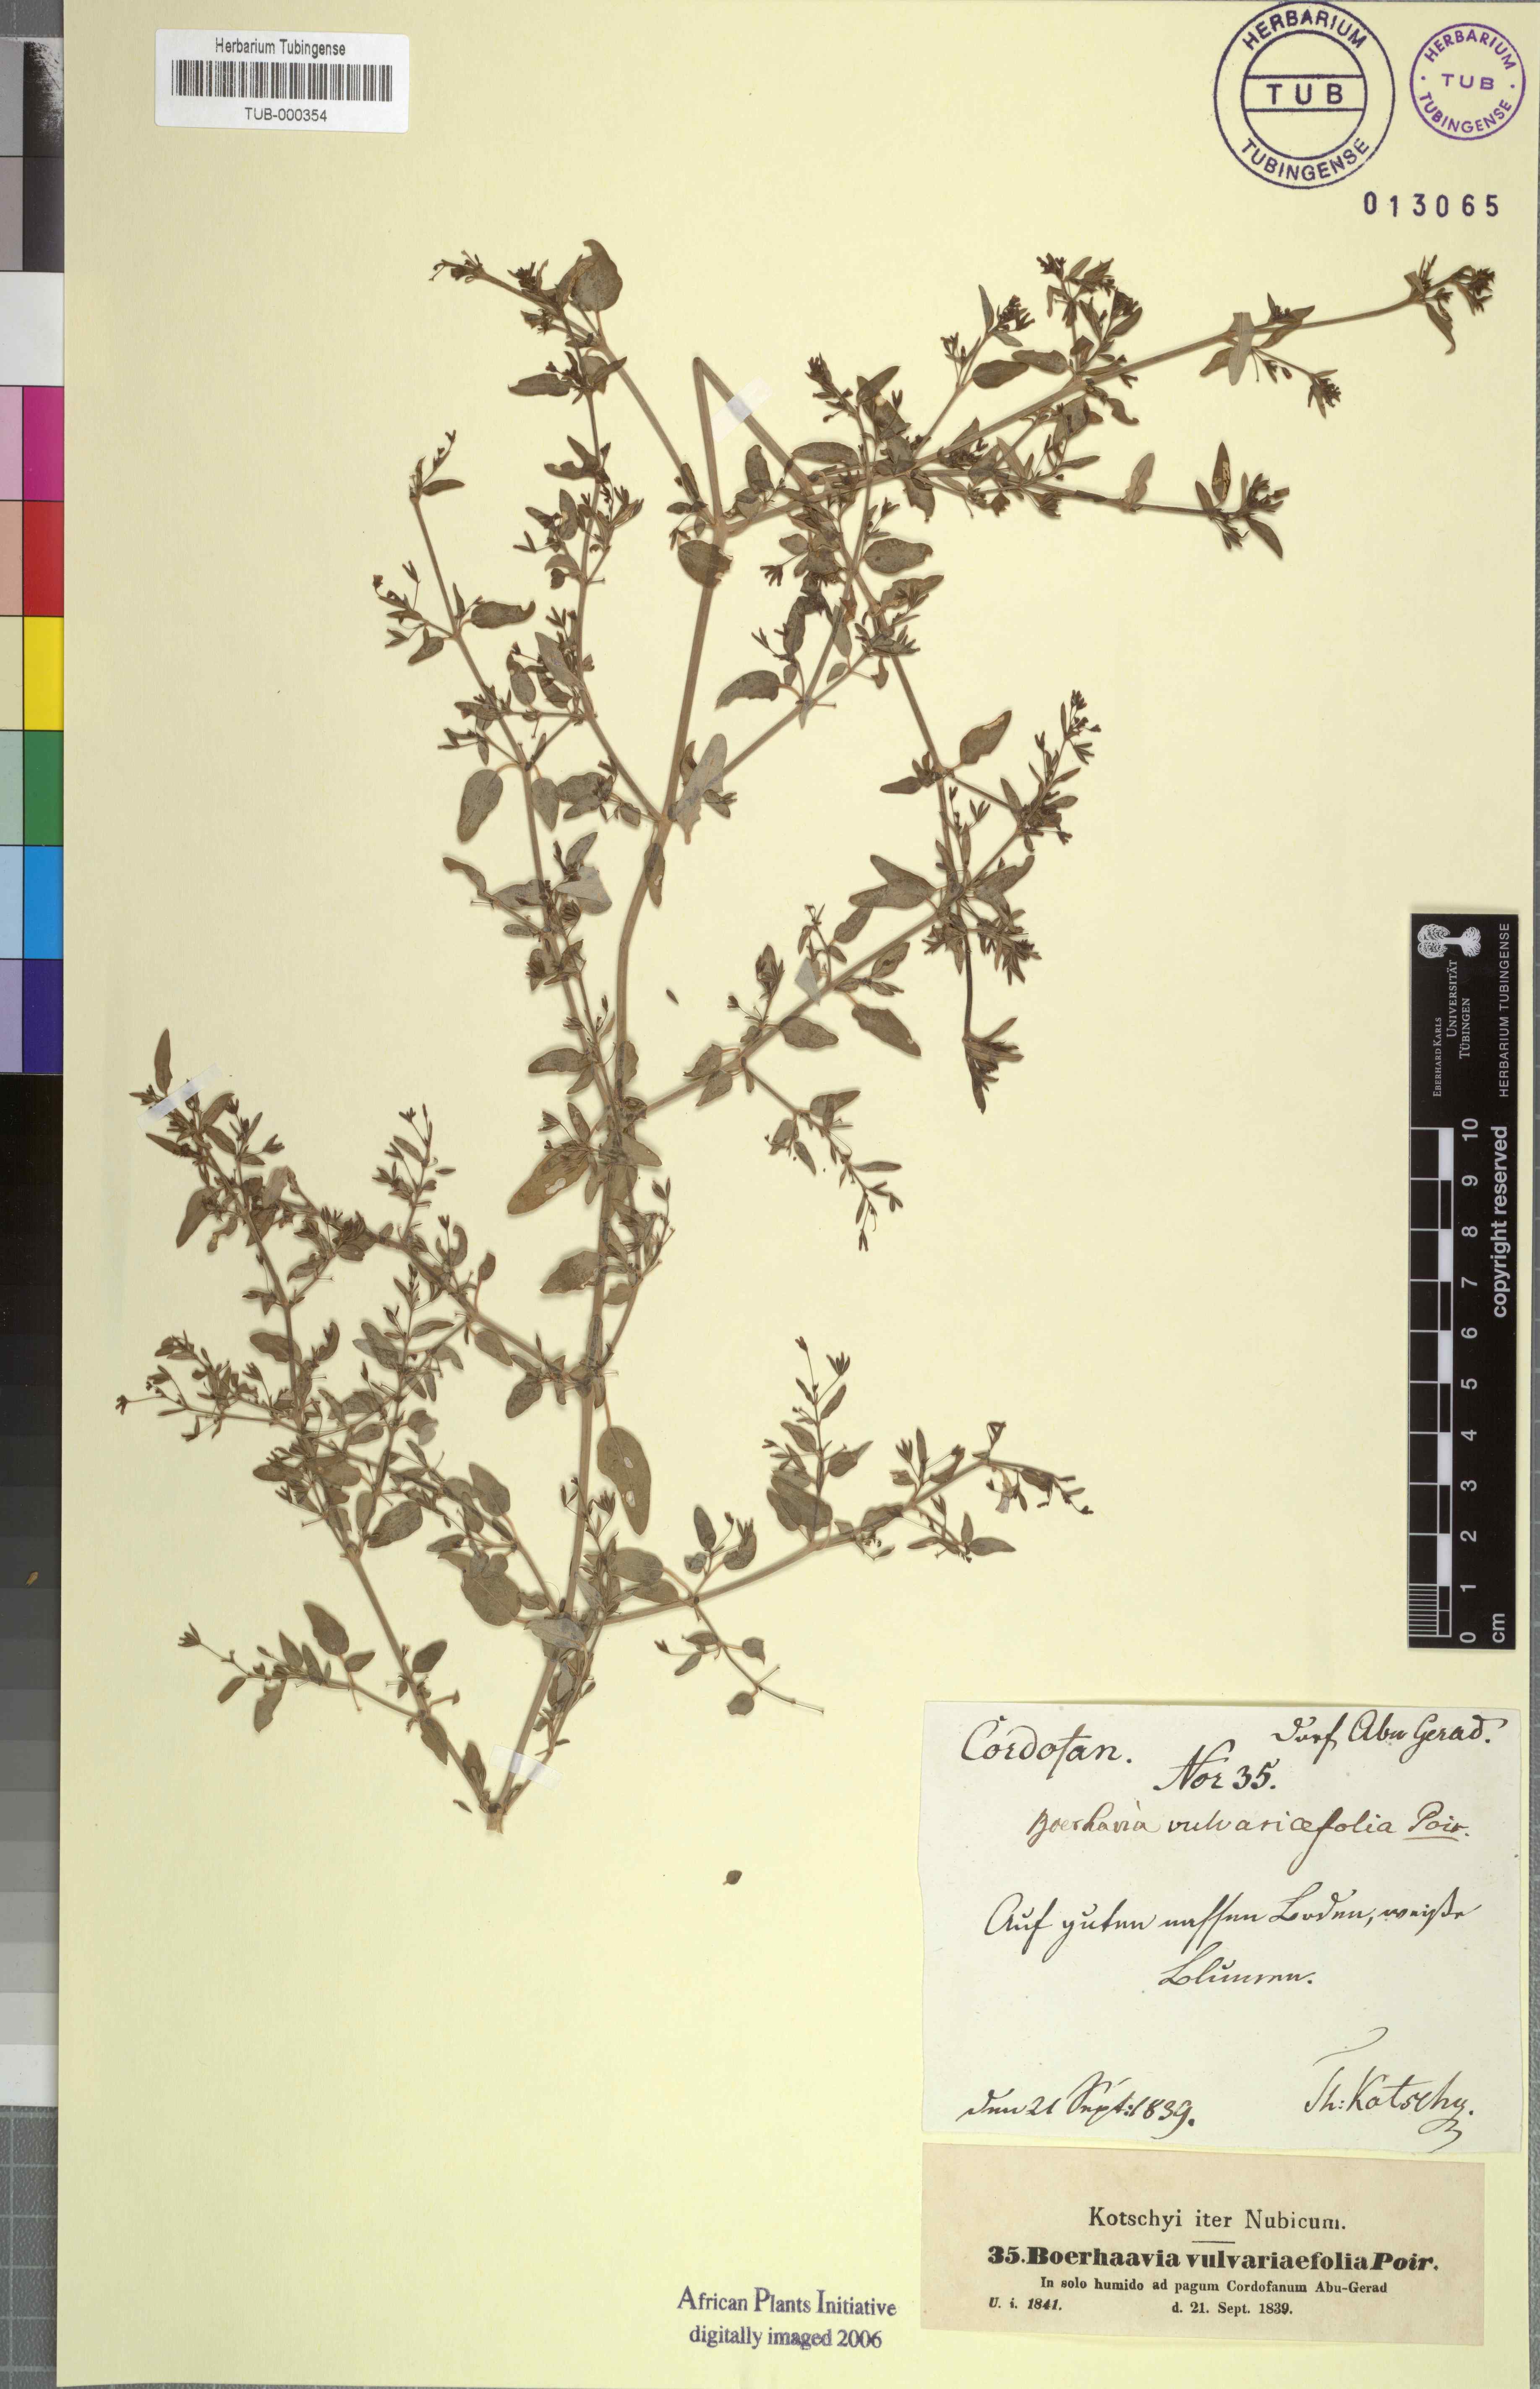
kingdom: Plantae
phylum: Tracheophyta
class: Magnoliopsida
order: Caryophyllales
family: Nyctaginaceae
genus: Boerhavia
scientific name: Boerhavia repens
